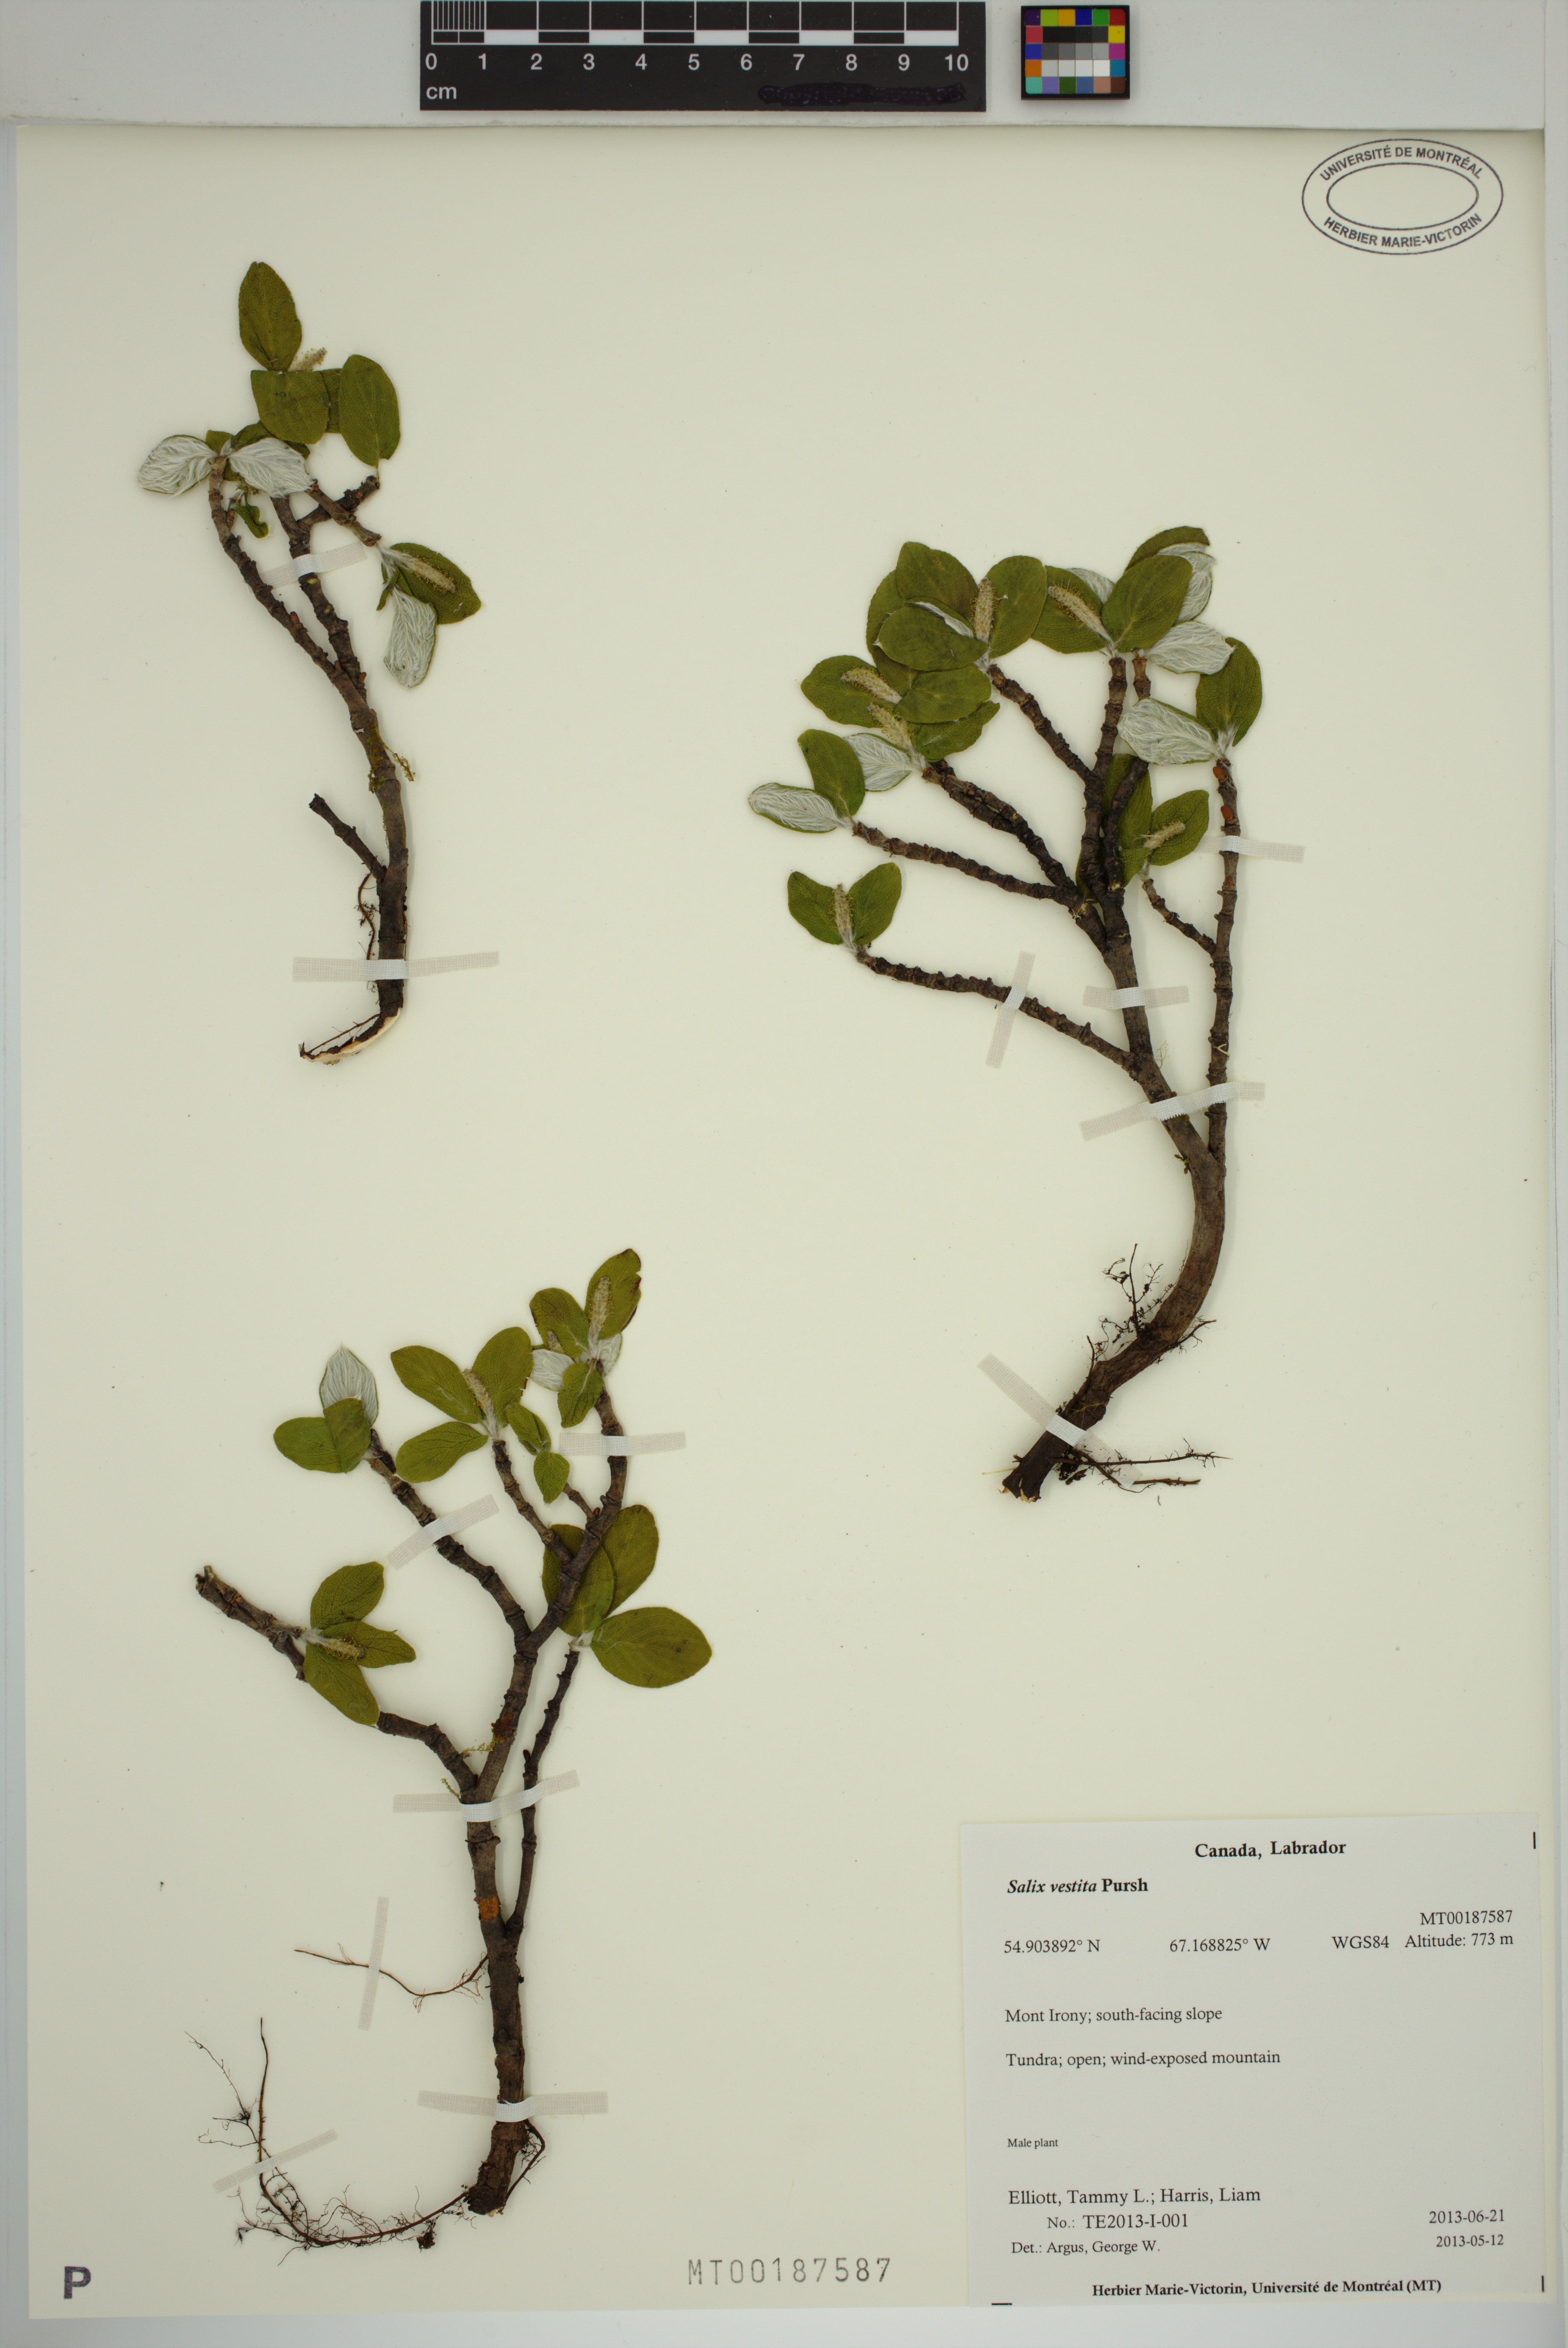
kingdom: Plantae
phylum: Tracheophyta
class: Magnoliopsida
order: Malpighiales
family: Salicaceae
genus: Salix
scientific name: Salix vestita
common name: Hairy willow
